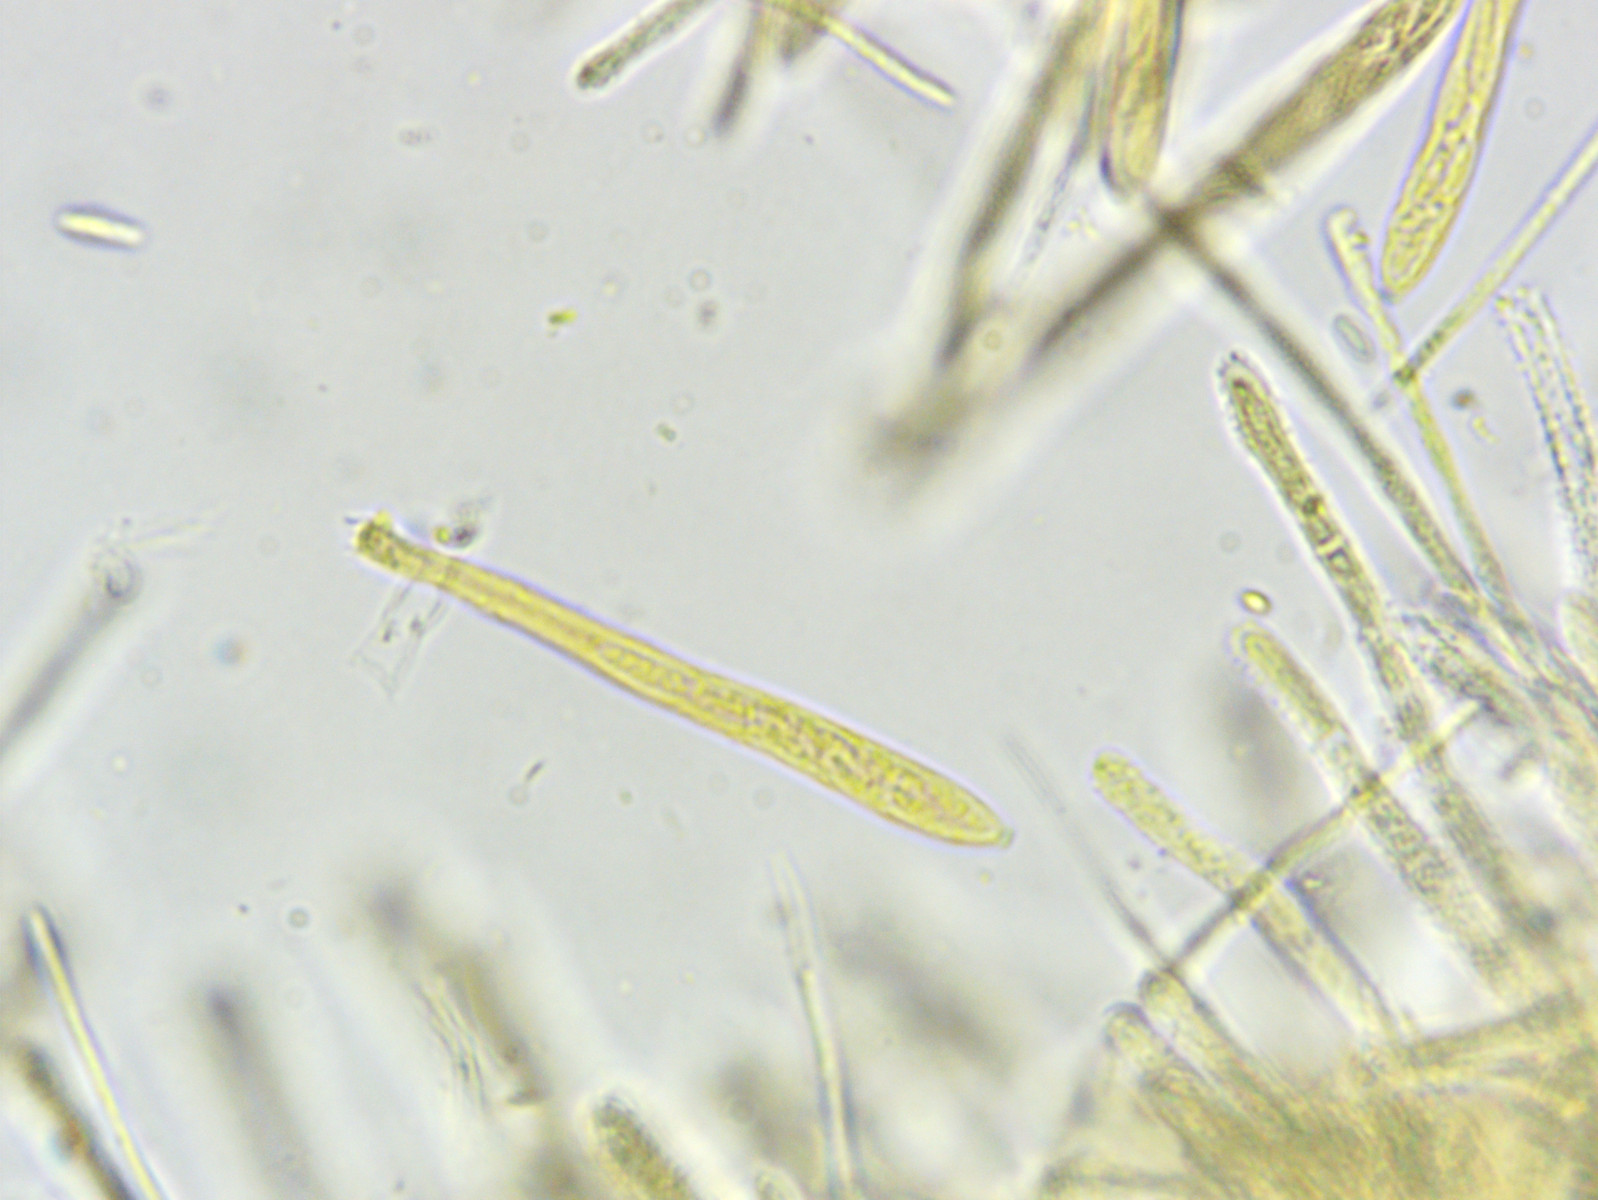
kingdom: Fungi
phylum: Ascomycota
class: Leotiomycetes
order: Helotiales
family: Lachnaceae
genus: Lachnellula
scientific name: Lachnellula subtilissima
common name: gran-frynseskive
